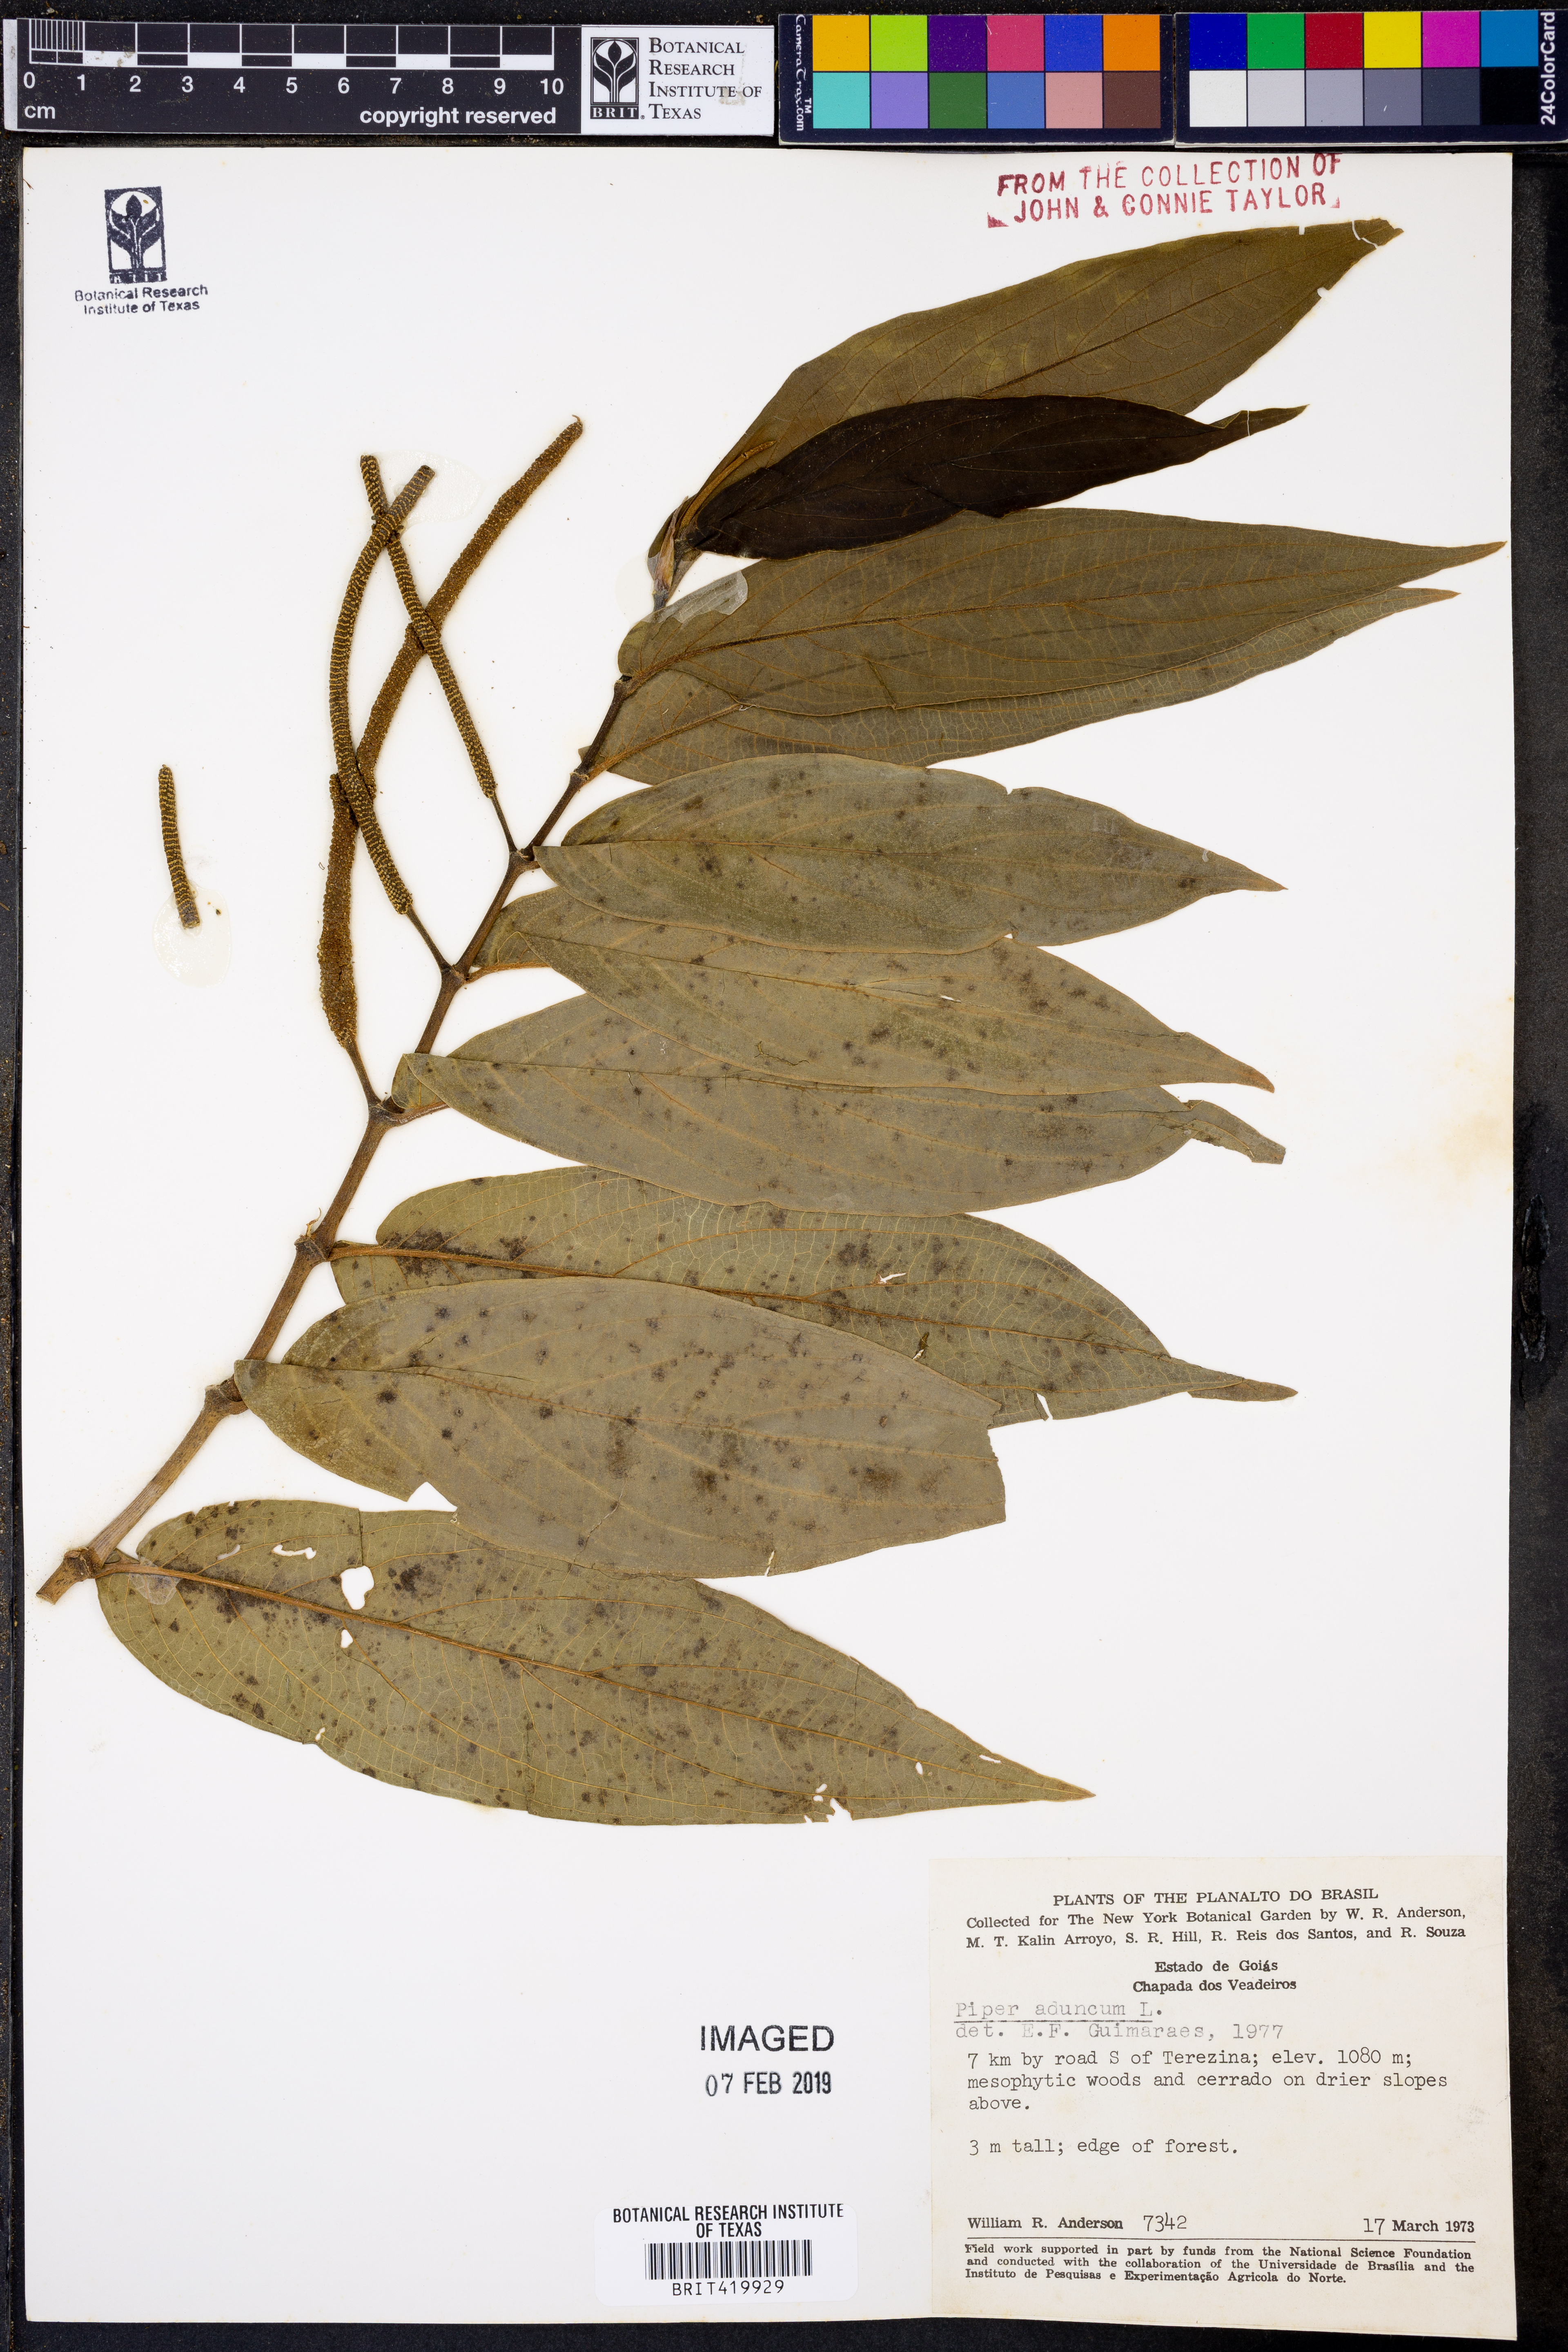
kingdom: Plantae
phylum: Tracheophyta
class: Magnoliopsida
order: Piperales
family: Piperaceae
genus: Piper
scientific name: Piper aduncum
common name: Spiked pepper
